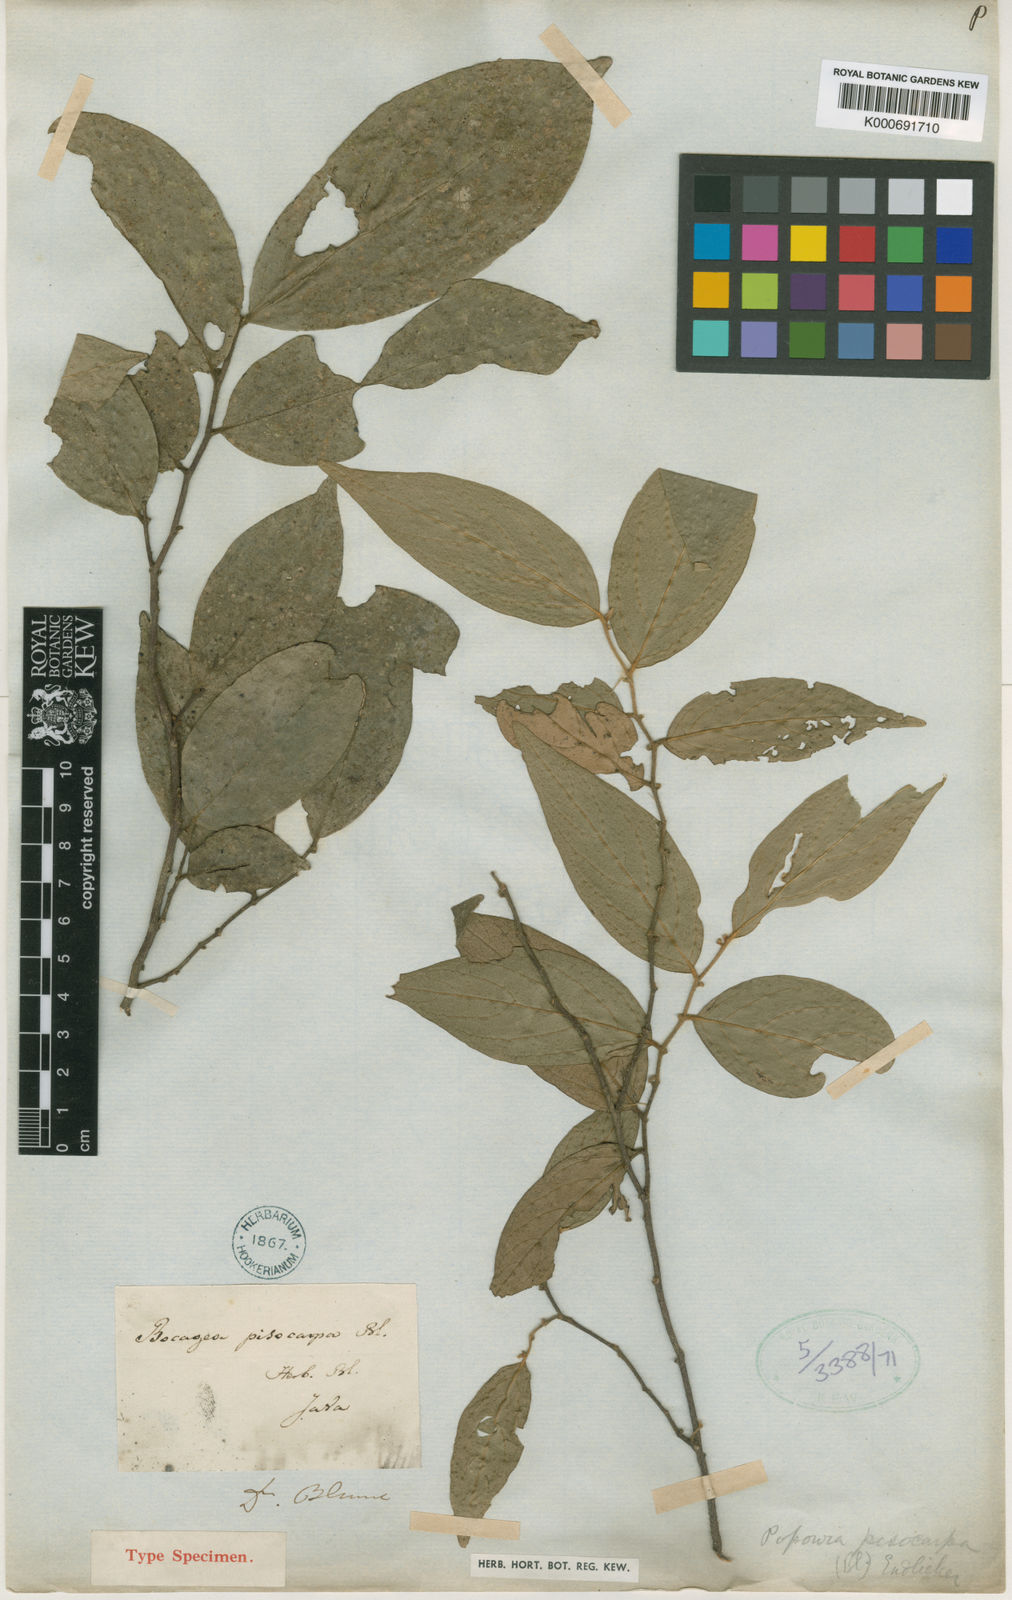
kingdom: Plantae
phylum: Tracheophyta
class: Magnoliopsida
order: Magnoliales
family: Annonaceae
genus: Popowia
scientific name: Popowia
